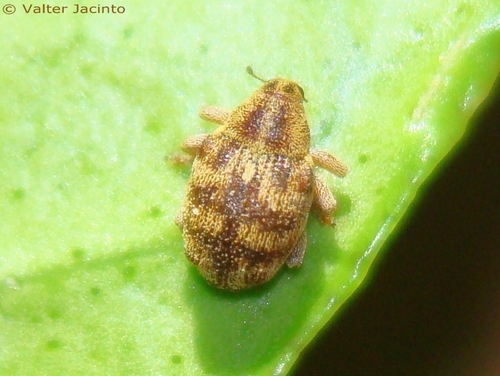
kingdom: Animalia
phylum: Arthropoda
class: Insecta
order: Coleoptera
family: Curculionidae
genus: Coeliodes
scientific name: Coeliodes
